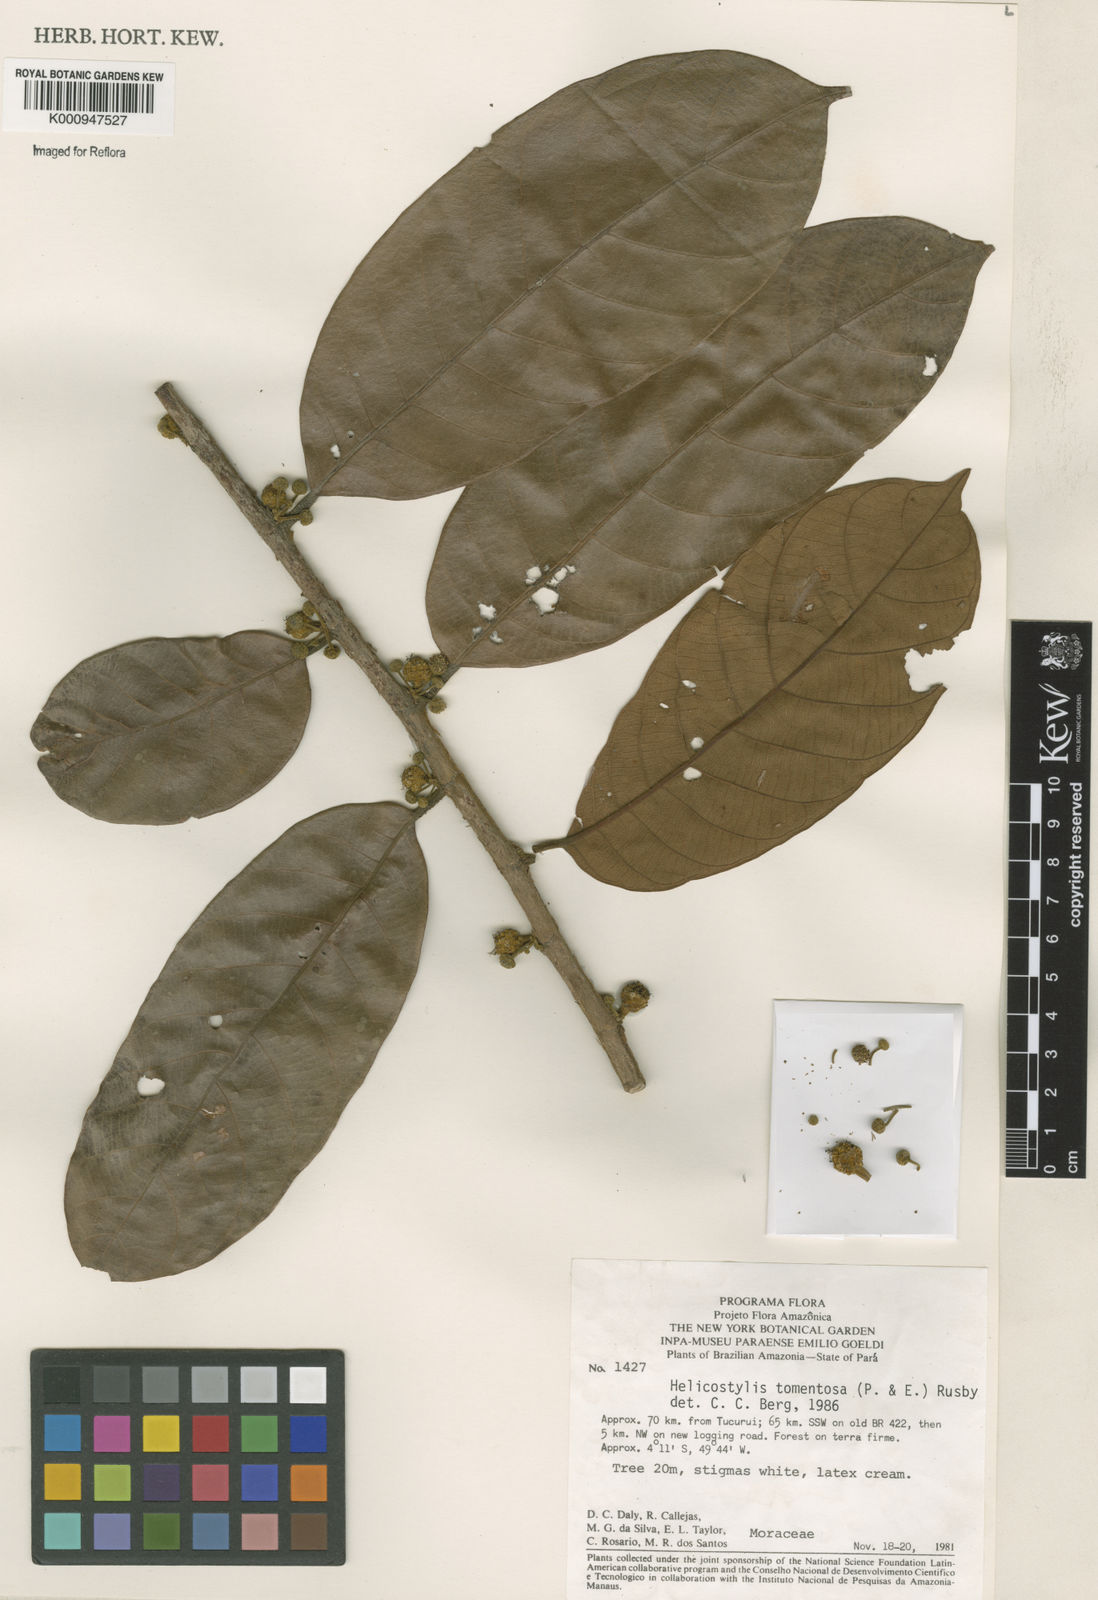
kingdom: Plantae
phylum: Tracheophyta
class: Magnoliopsida
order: Rosales
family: Moraceae
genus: Helicostylis
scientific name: Helicostylis
